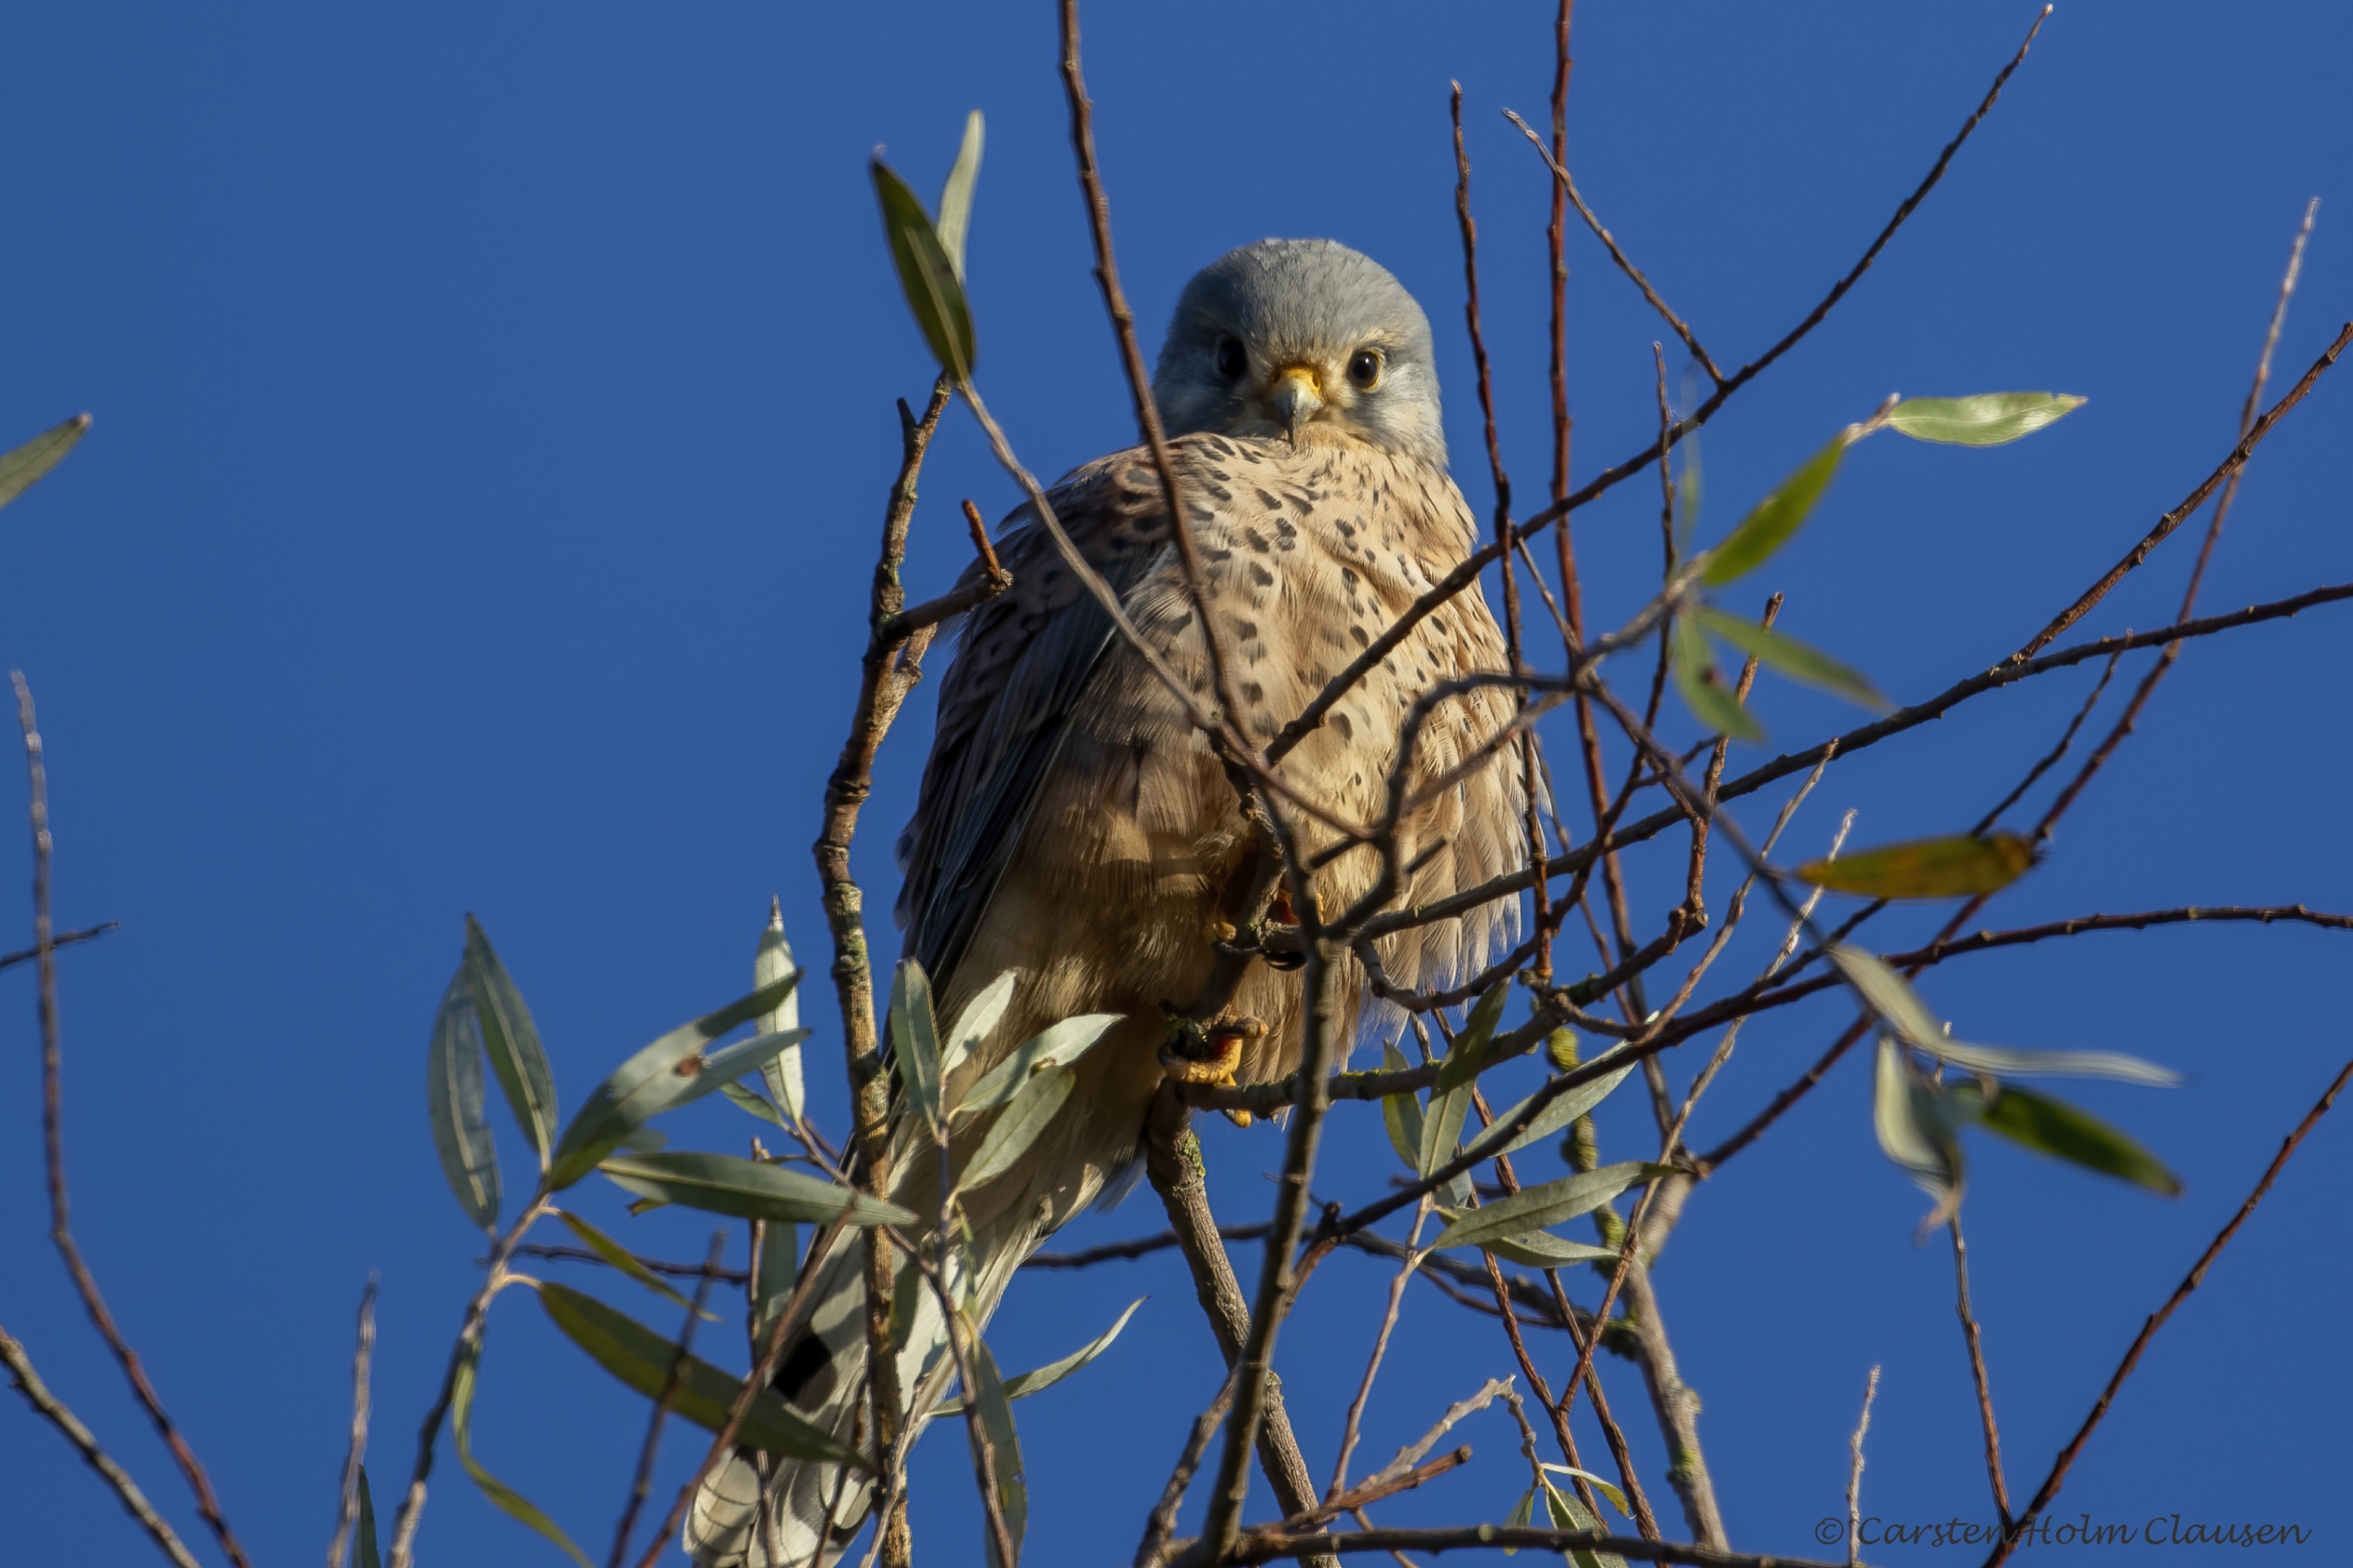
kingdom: Animalia
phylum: Chordata
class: Aves
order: Falconiformes
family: Falconidae
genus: Falco
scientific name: Falco tinnunculus
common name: Tårnfalk
